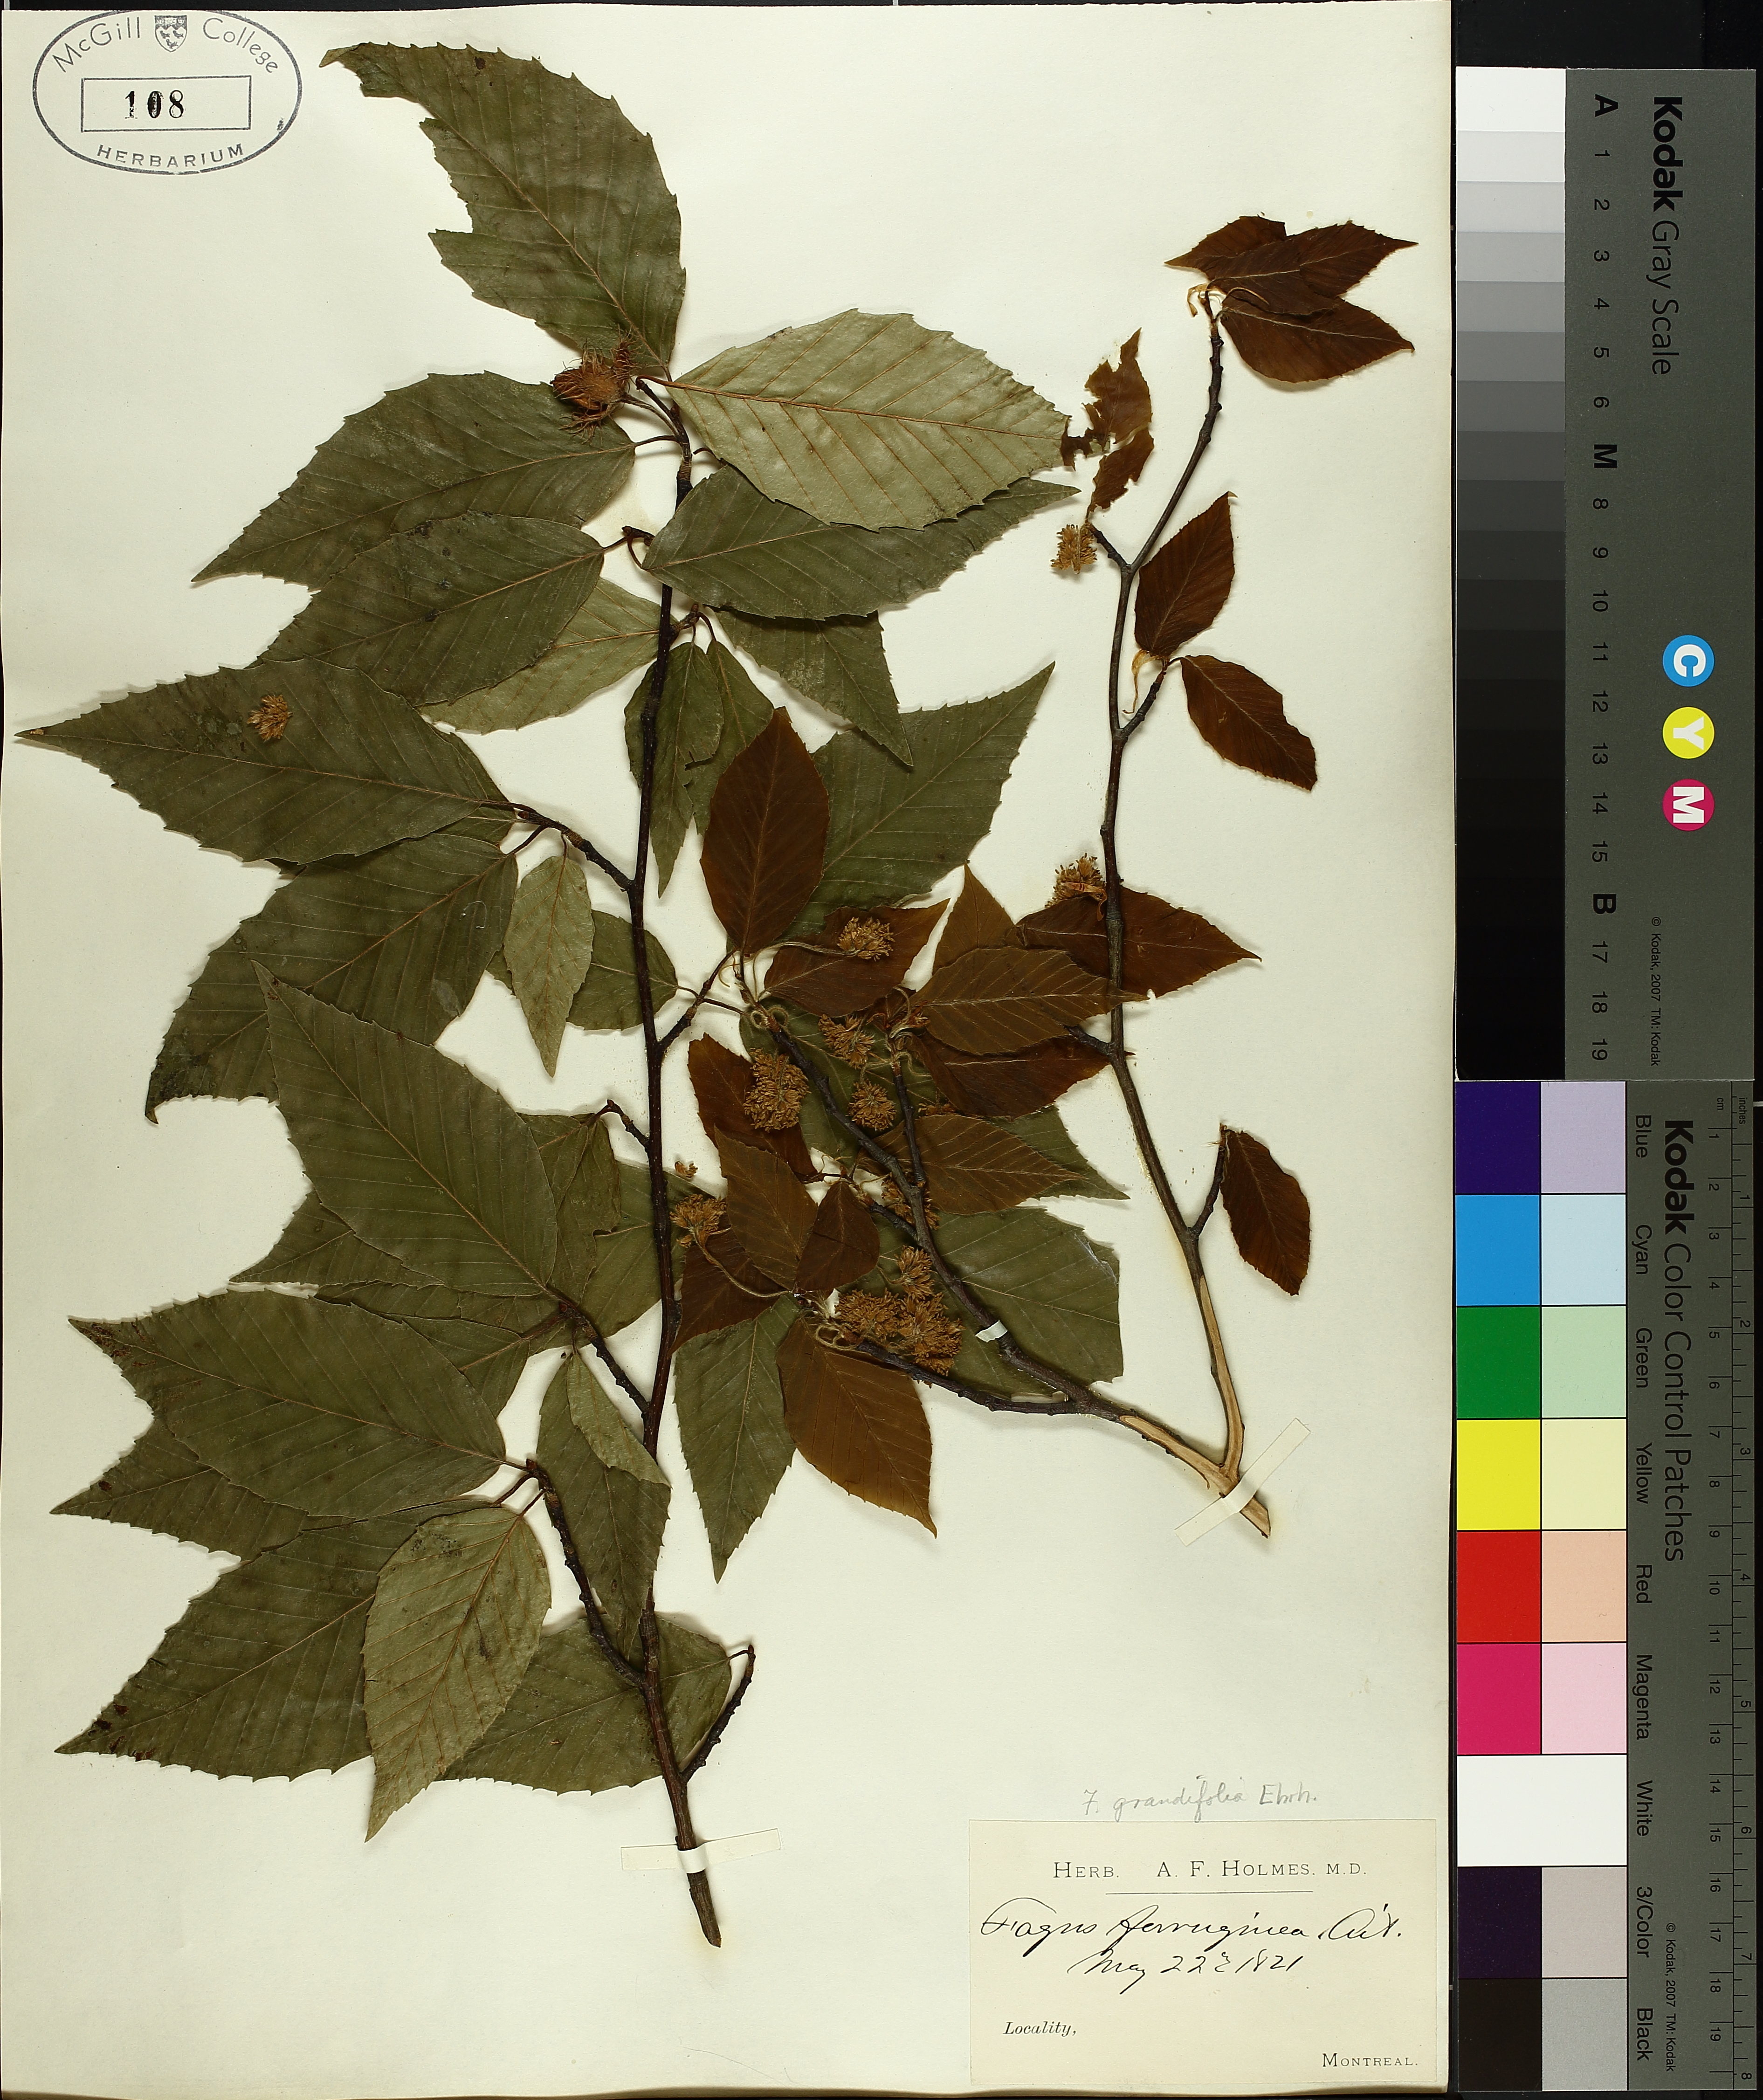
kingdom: Plantae
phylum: Tracheophyta
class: Magnoliopsida
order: Fagales
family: Fagaceae
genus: Fagus
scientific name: Fagus grandifolia
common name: American beech
